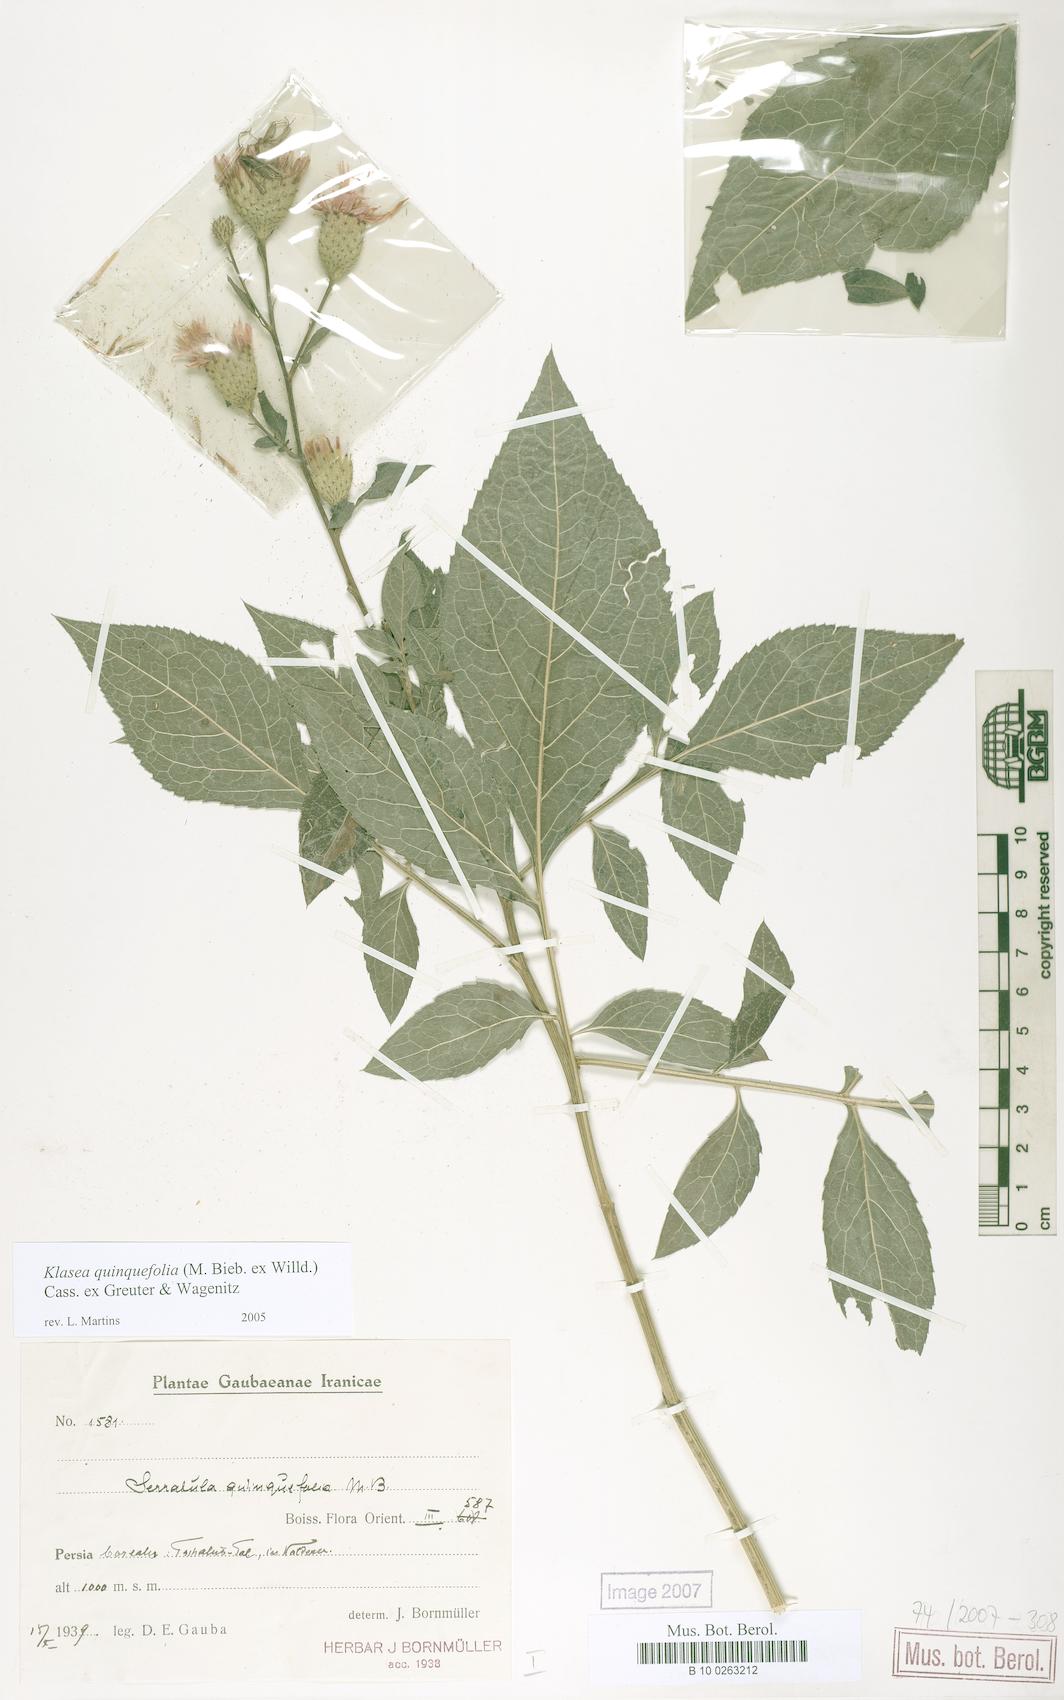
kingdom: Plantae
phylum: Tracheophyta
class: Magnoliopsida
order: Asterales
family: Asteraceae
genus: Klasea
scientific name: Klasea quinquefolia
